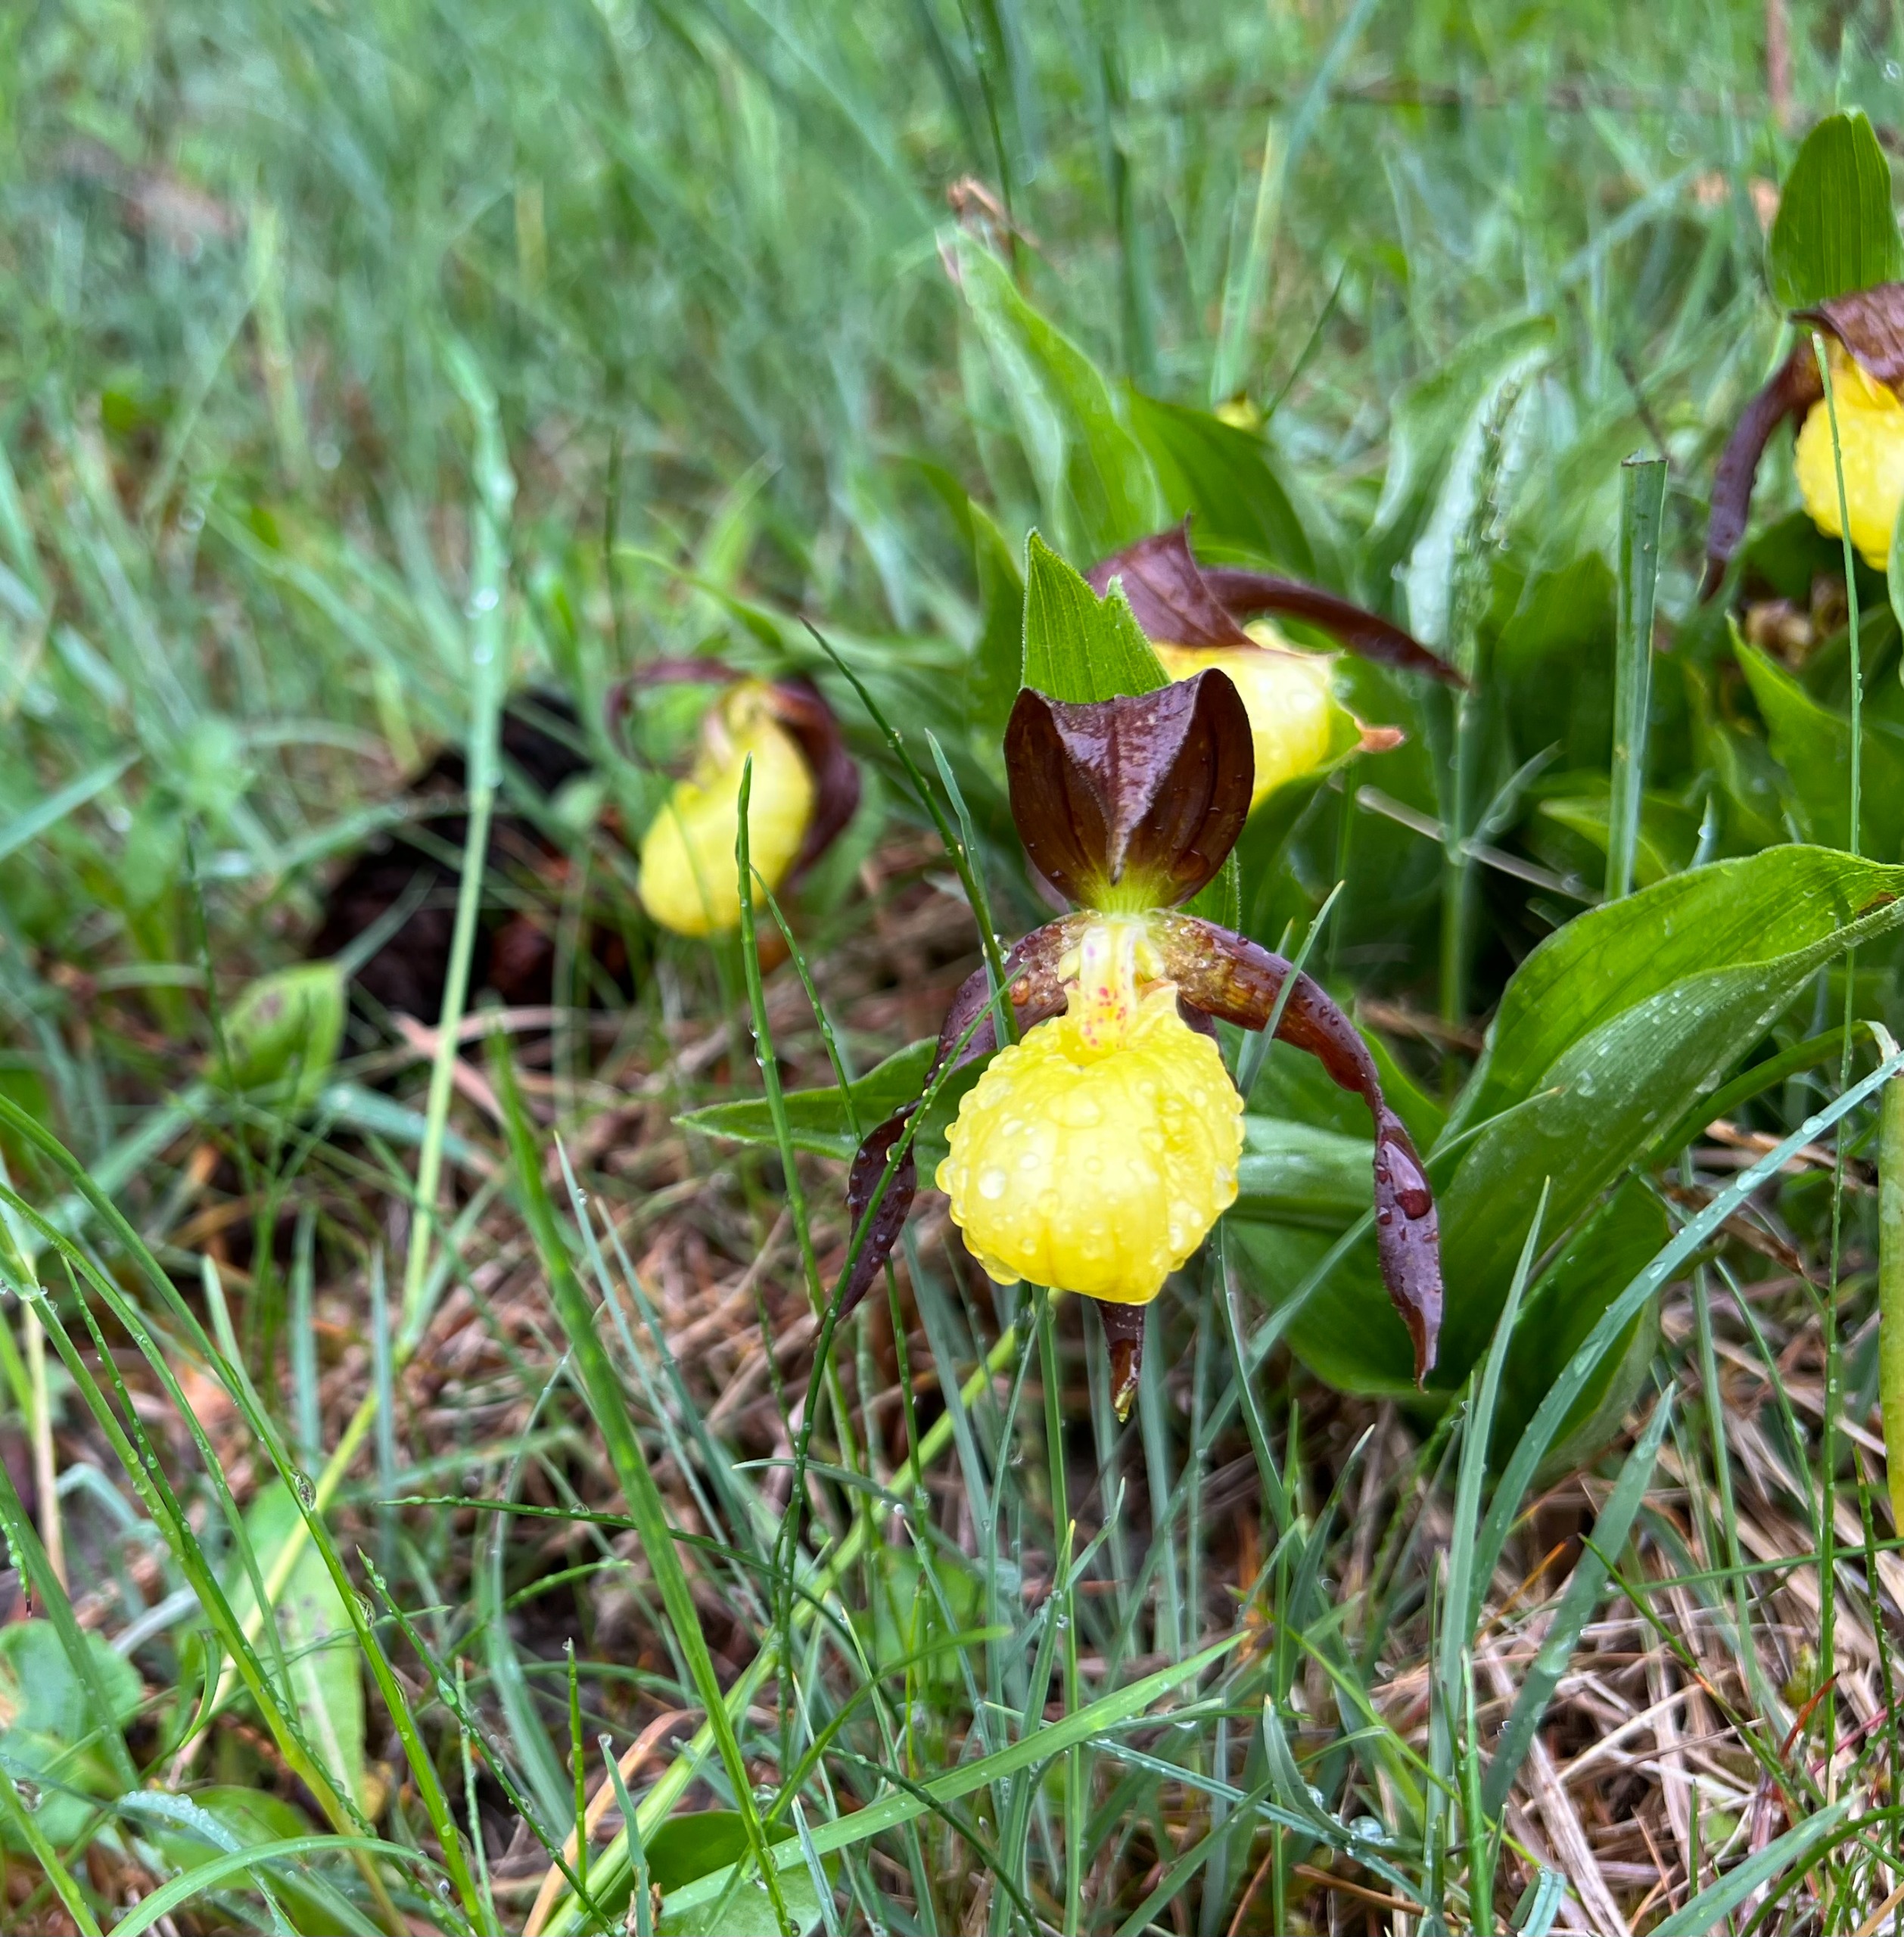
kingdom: Plantae
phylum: Tracheophyta
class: Liliopsida
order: Asparagales
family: Orchidaceae
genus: Cypripedium
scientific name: Cypripedium calceolus
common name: Fruesko
